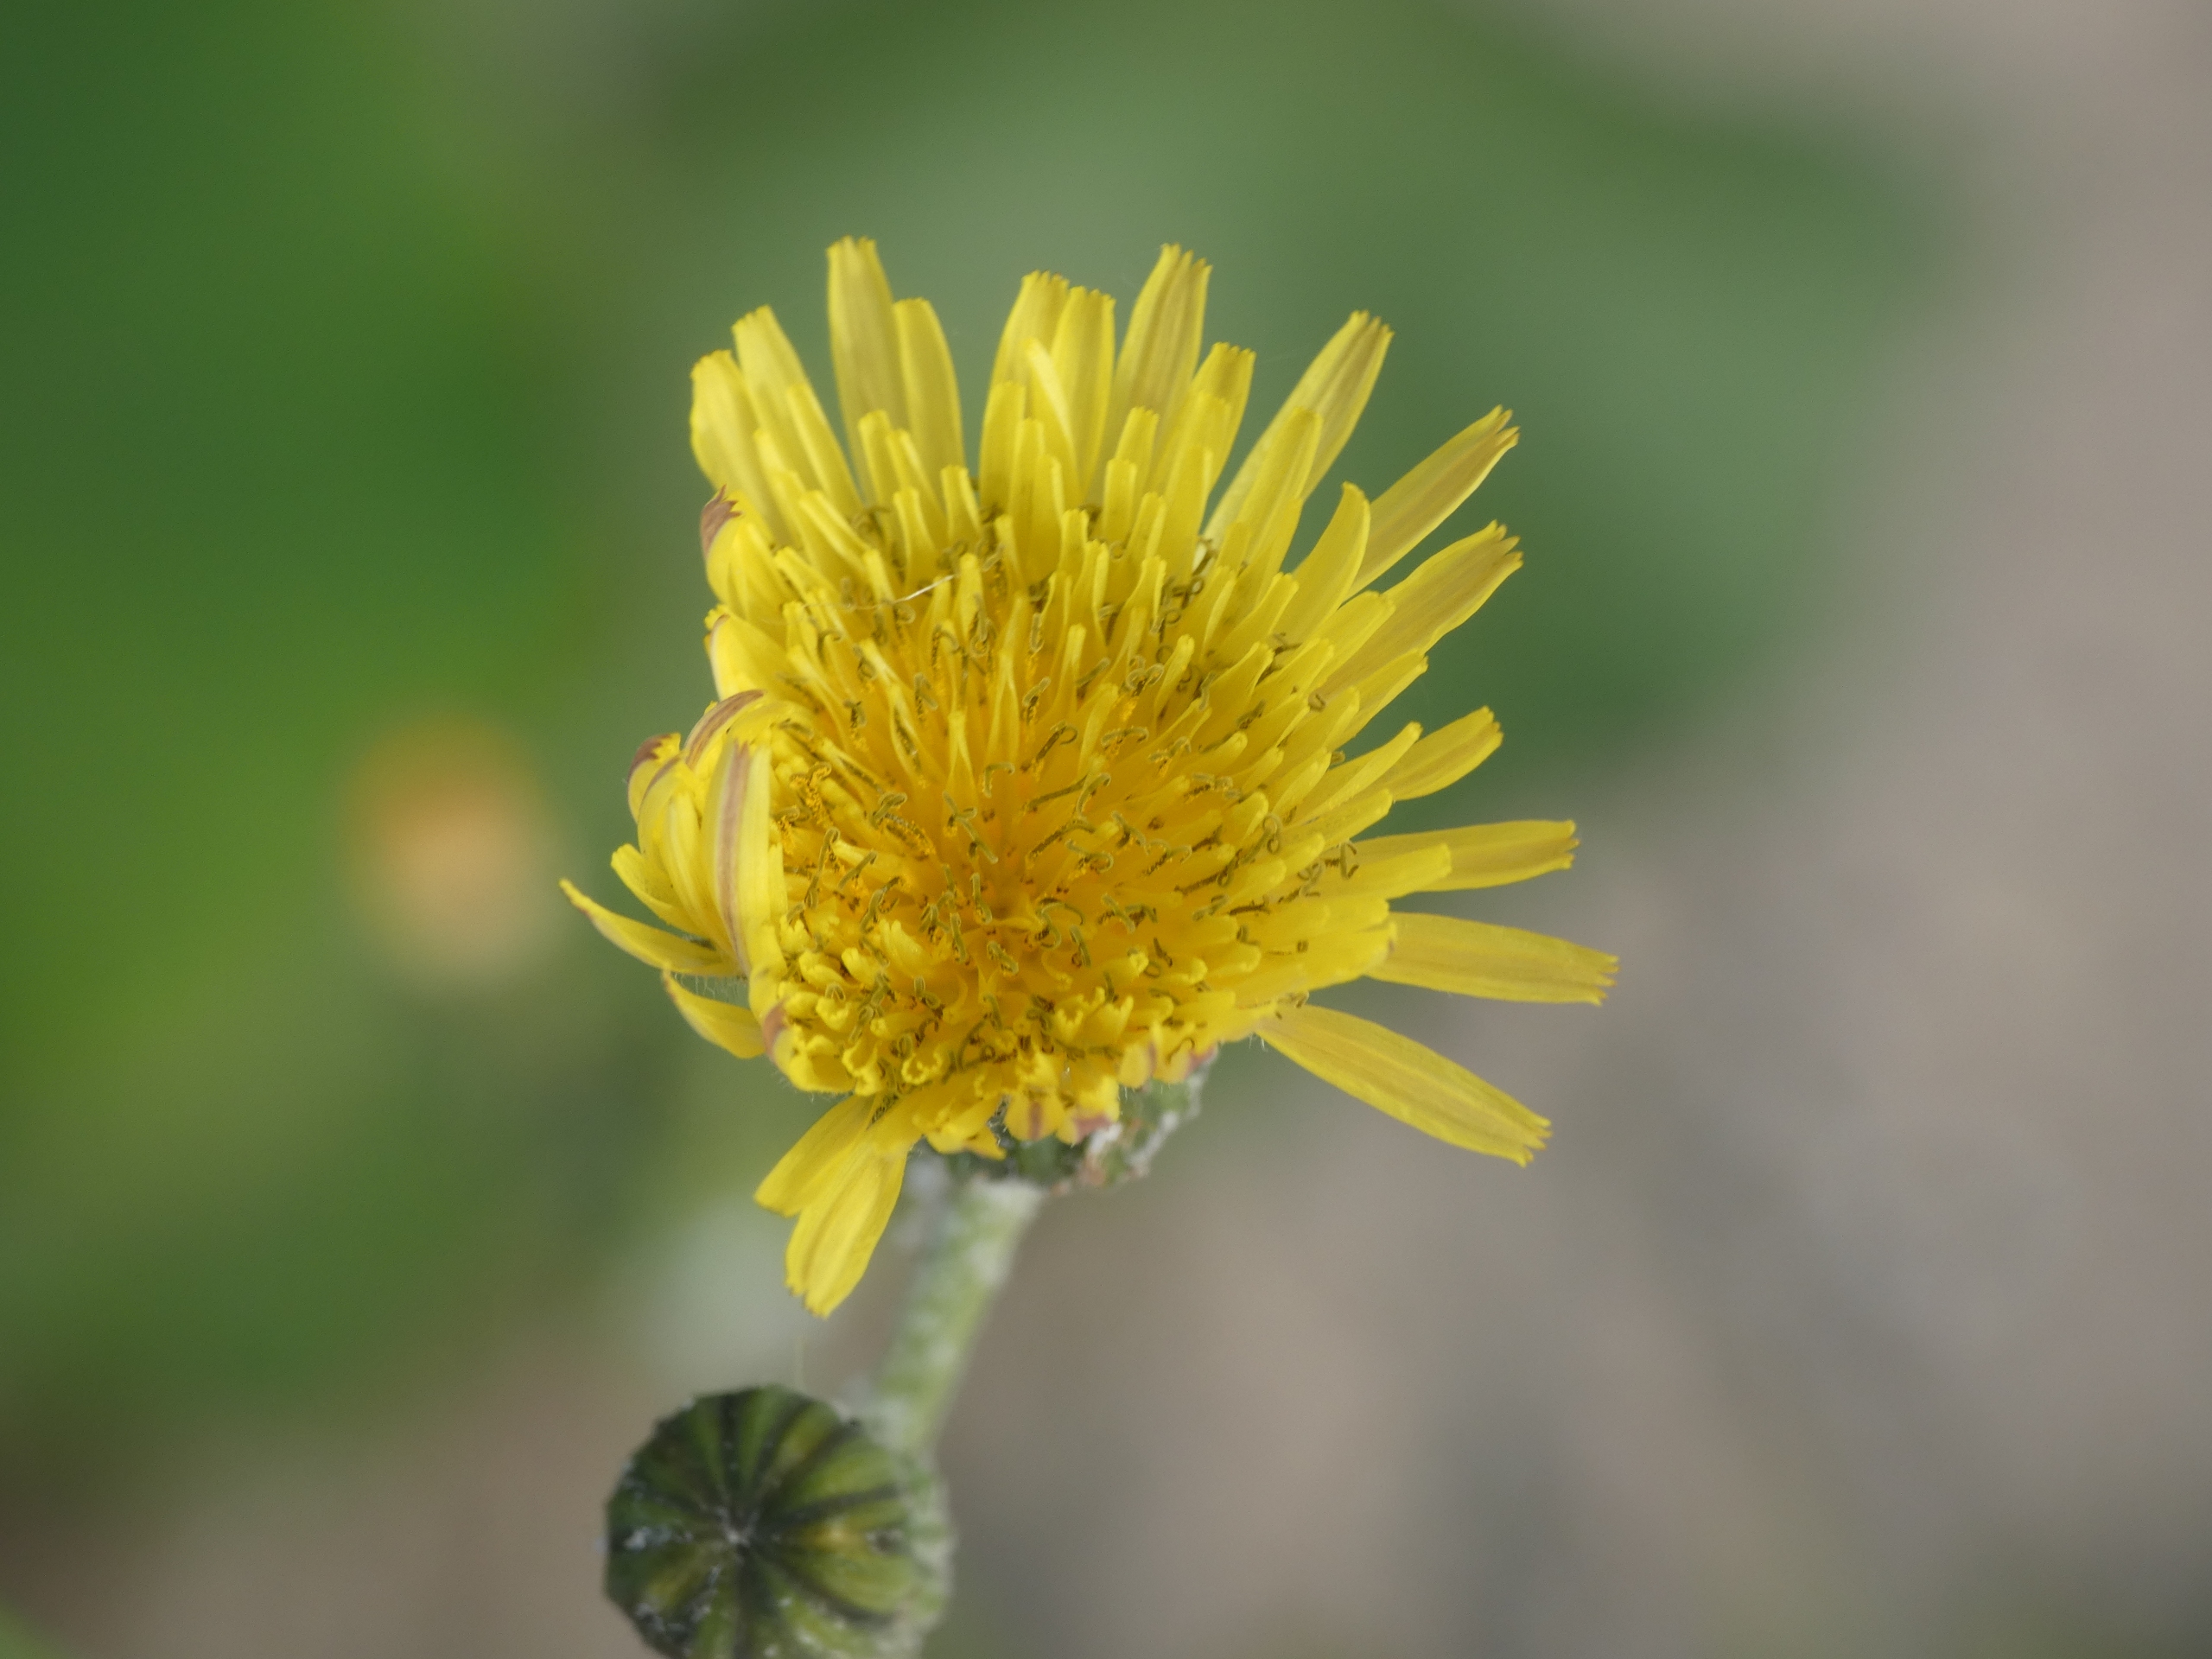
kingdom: Plantae
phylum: Tracheophyta
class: Magnoliopsida
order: Asterales
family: Asteraceae
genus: Sonchus
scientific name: Sonchus oleraceus
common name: Almindelig svinemælk
